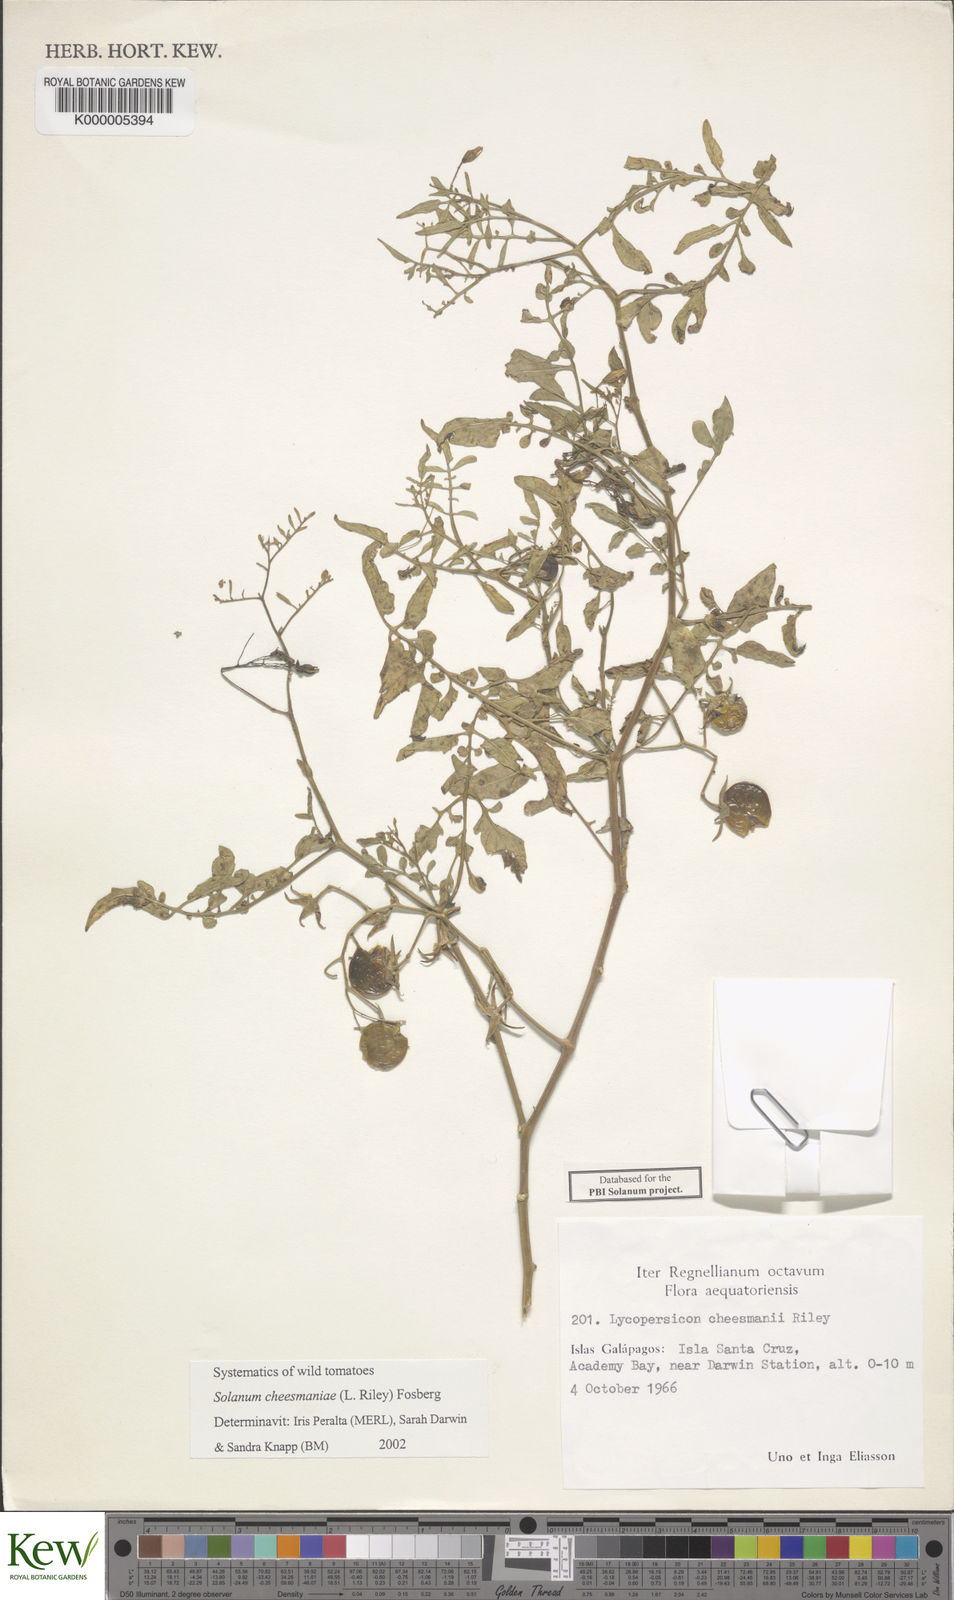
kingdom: Plantae
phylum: Tracheophyta
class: Magnoliopsida
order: Solanales
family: Solanaceae
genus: Solanum
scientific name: Solanum cheesmaniae
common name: Galapagos tomato
